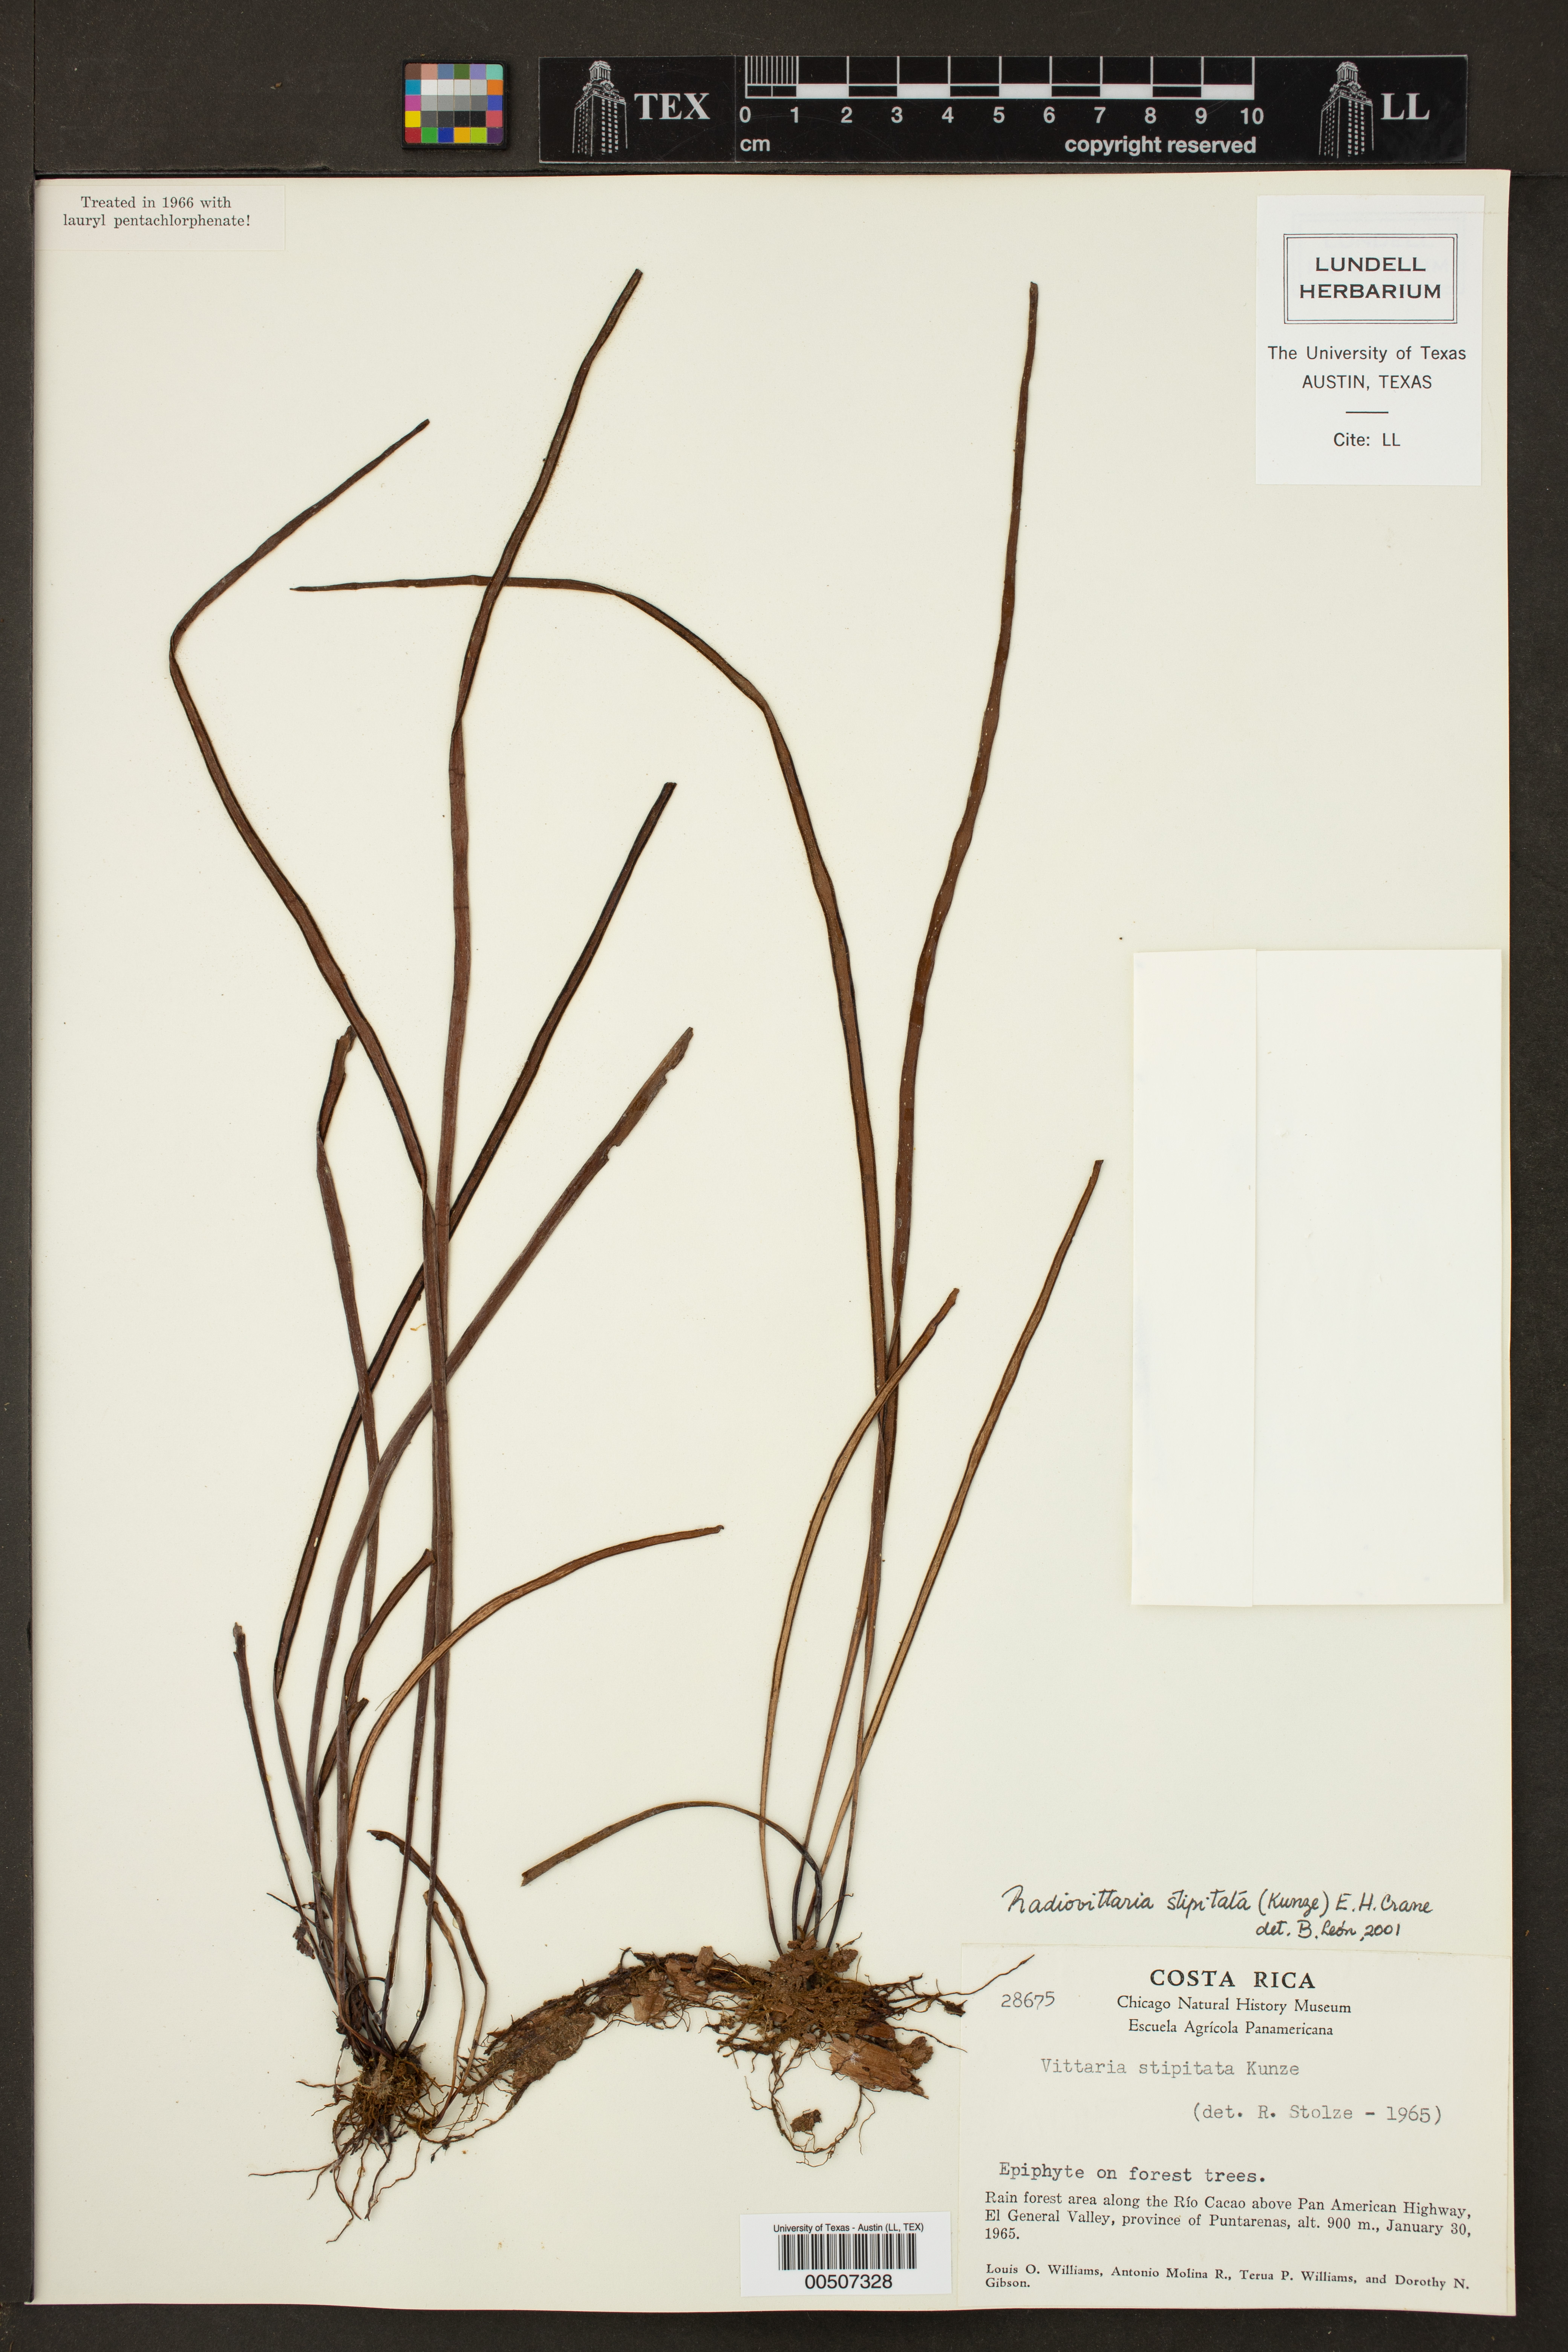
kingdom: Plantae
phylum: Tracheophyta
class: Polypodiopsida
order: Polypodiales
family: Pteridaceae
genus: Radiovittaria
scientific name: Radiovittaria stipitata
